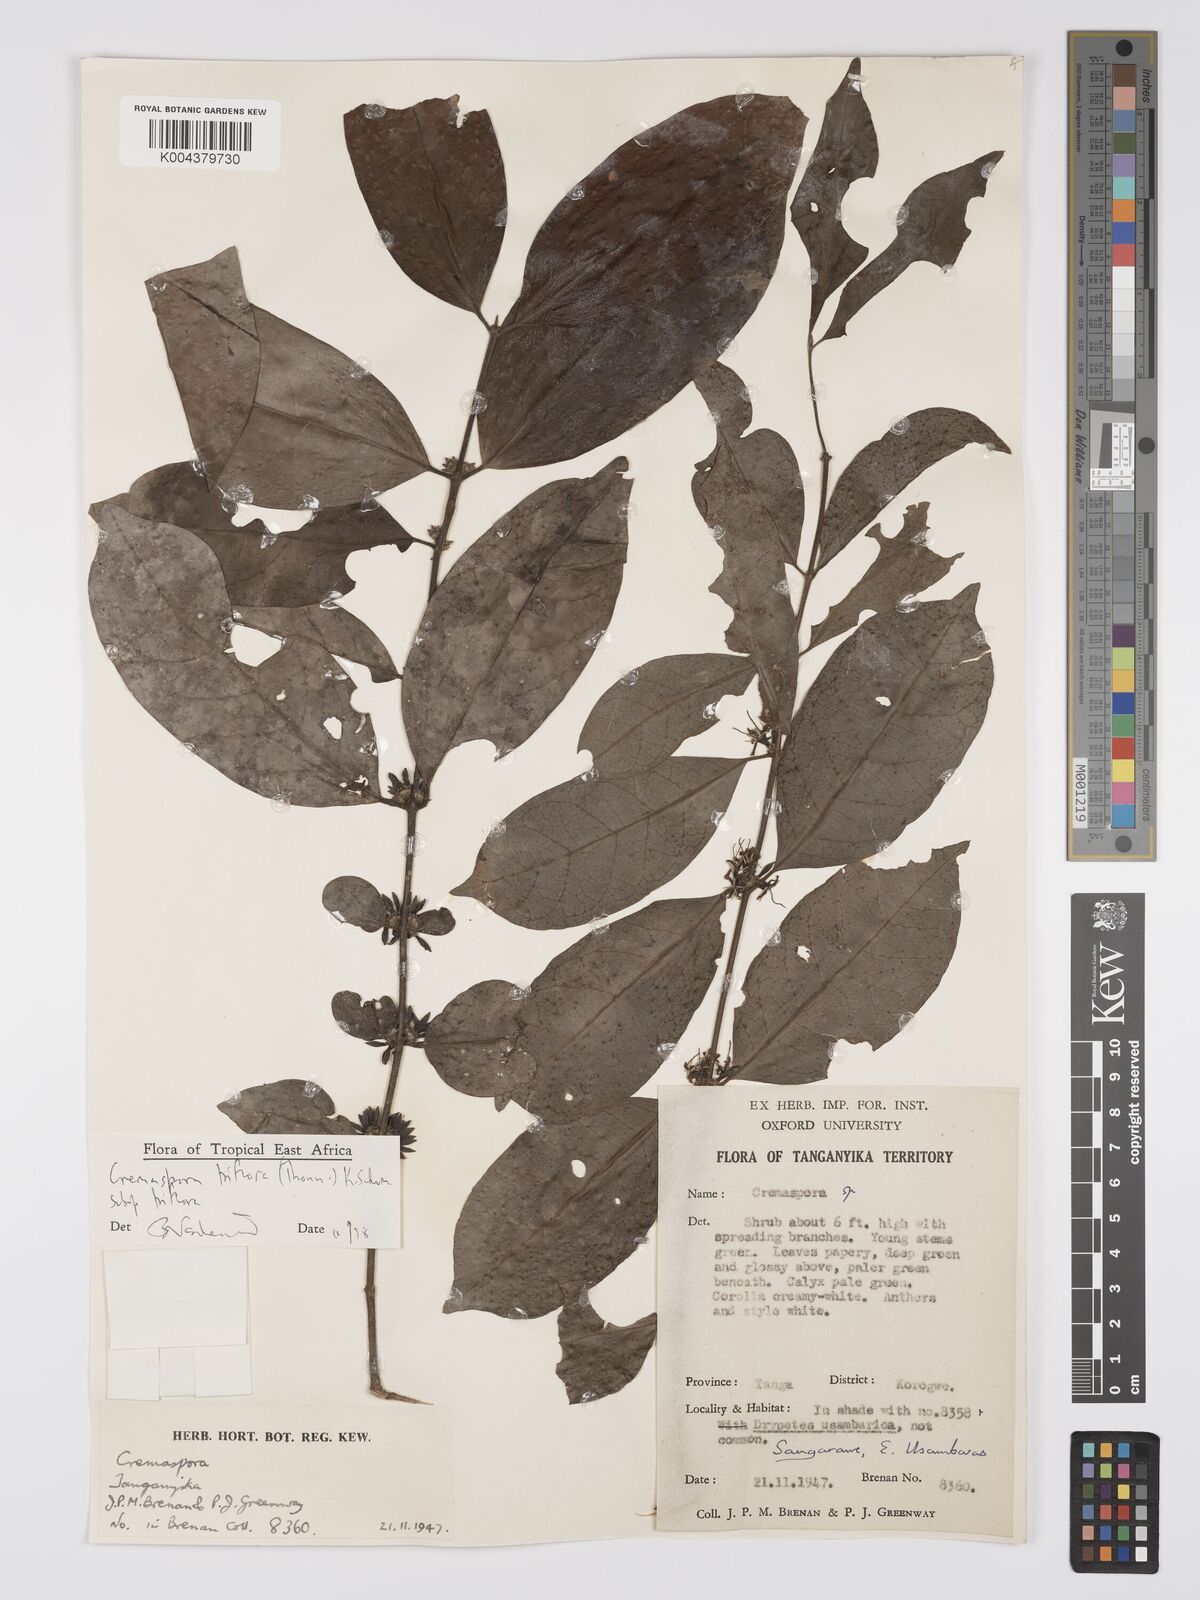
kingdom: Plantae
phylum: Tracheophyta
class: Magnoliopsida
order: Gentianales
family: Rubiaceae
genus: Cremaspora
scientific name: Cremaspora triflora
